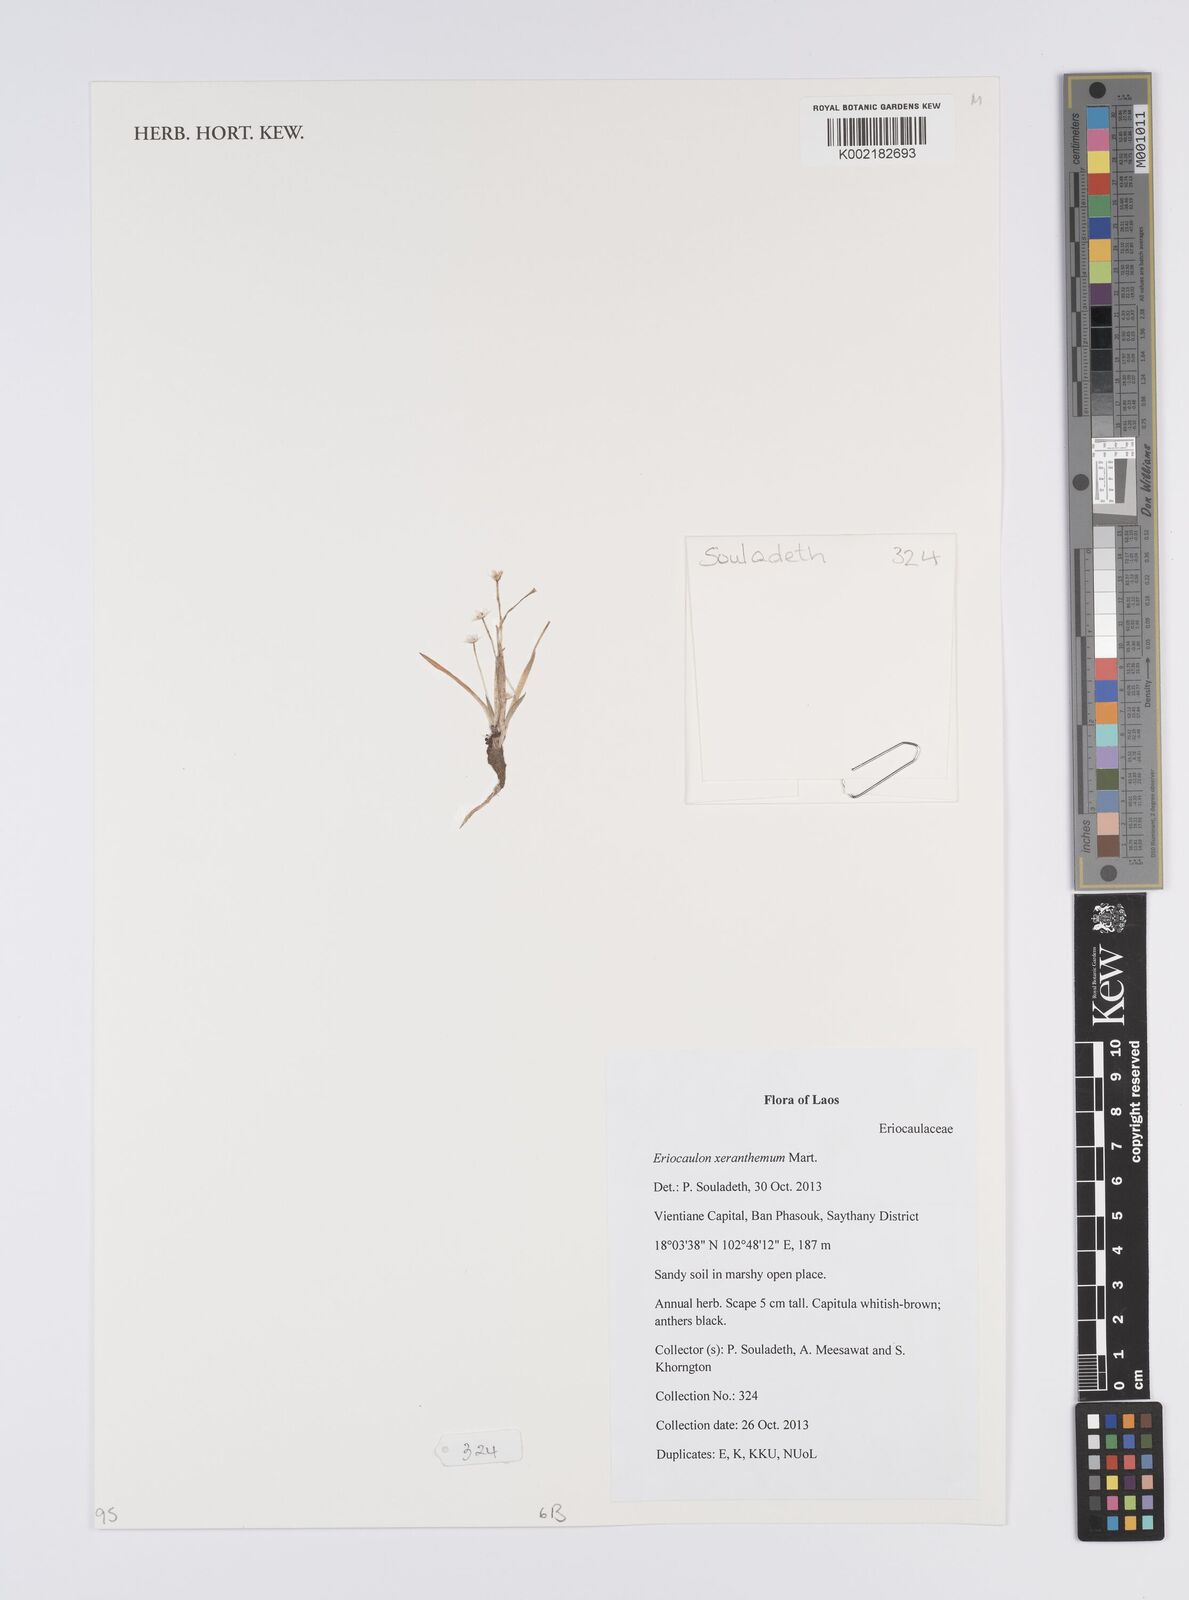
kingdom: Plantae
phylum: Tracheophyta
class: Liliopsida
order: Poales
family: Eriocaulaceae
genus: Eriocaulon
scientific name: Eriocaulon xeranthemum
